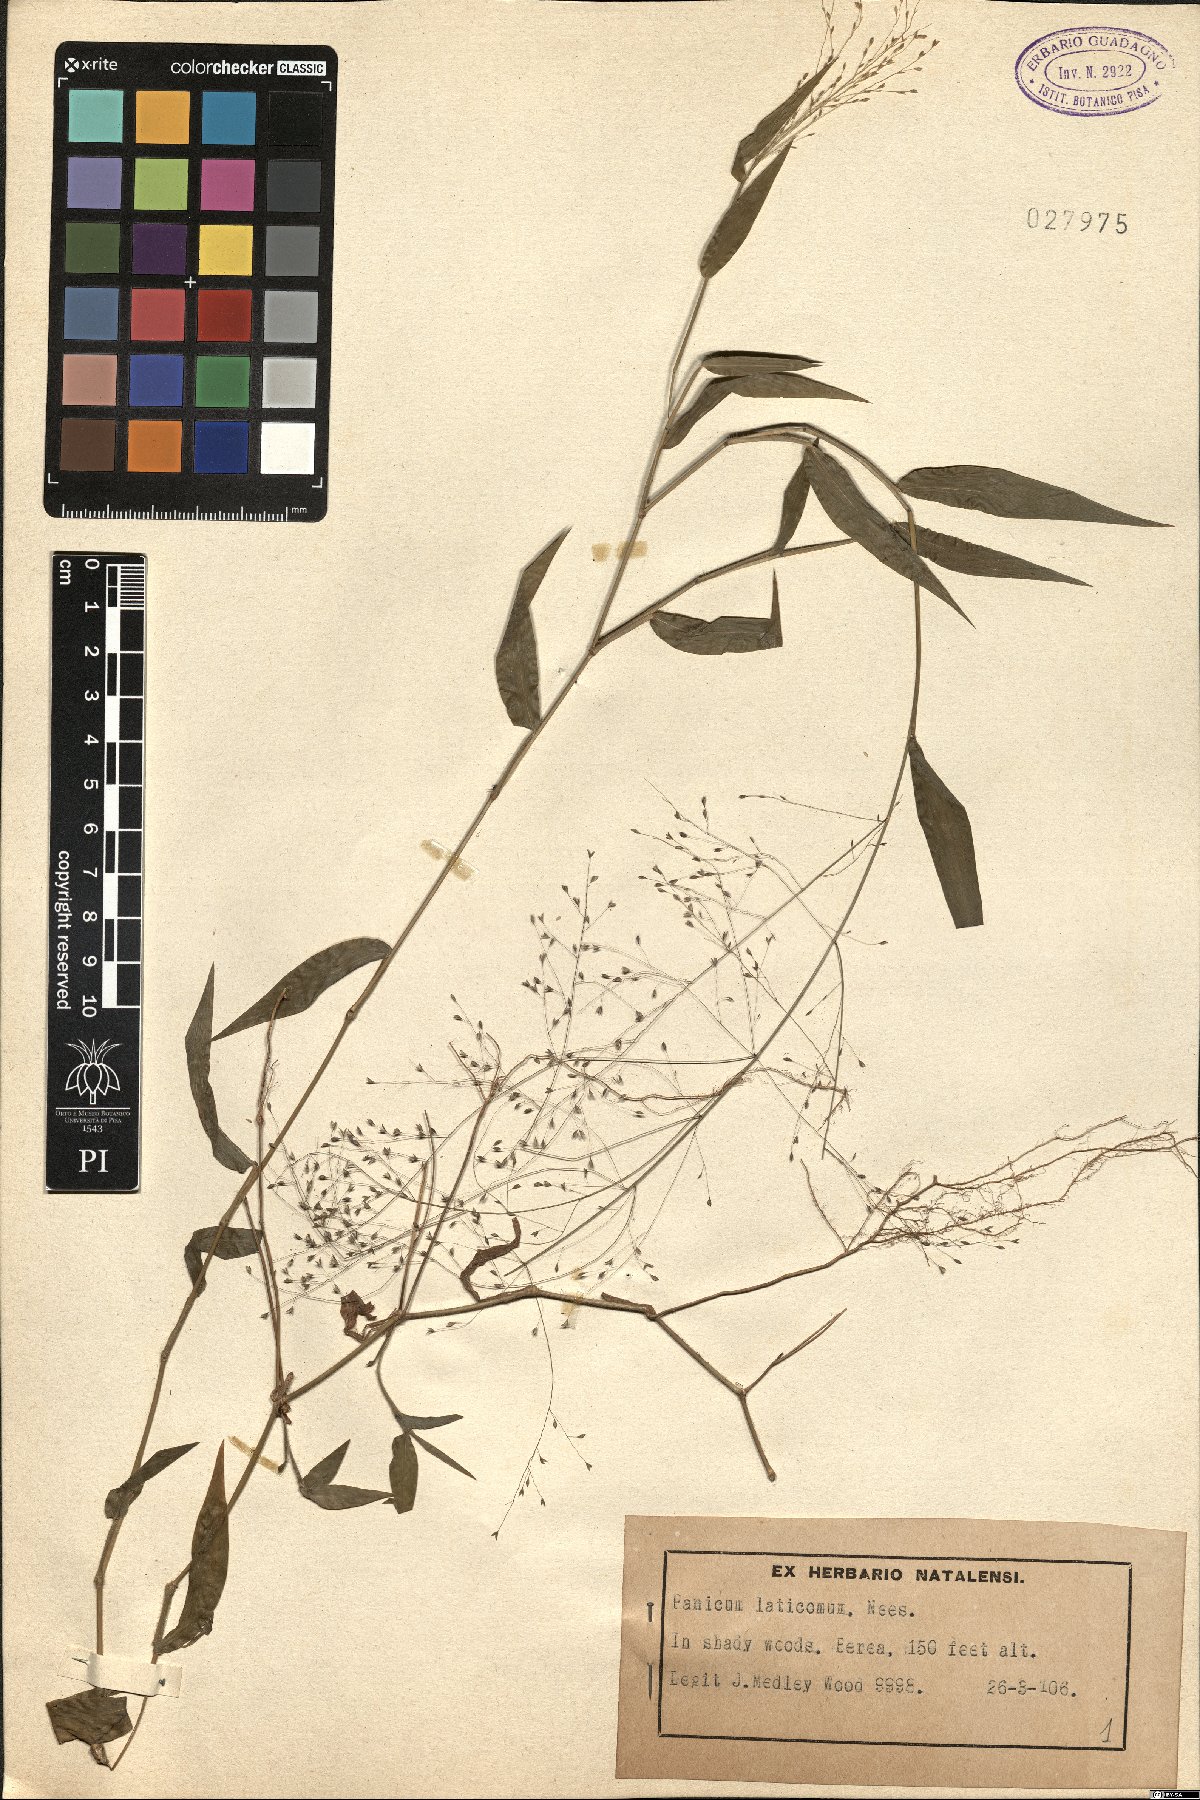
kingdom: Plantae
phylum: Tracheophyta
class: Liliopsida
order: Poales
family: Poaceae
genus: Panicum
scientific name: Panicum laticomum
